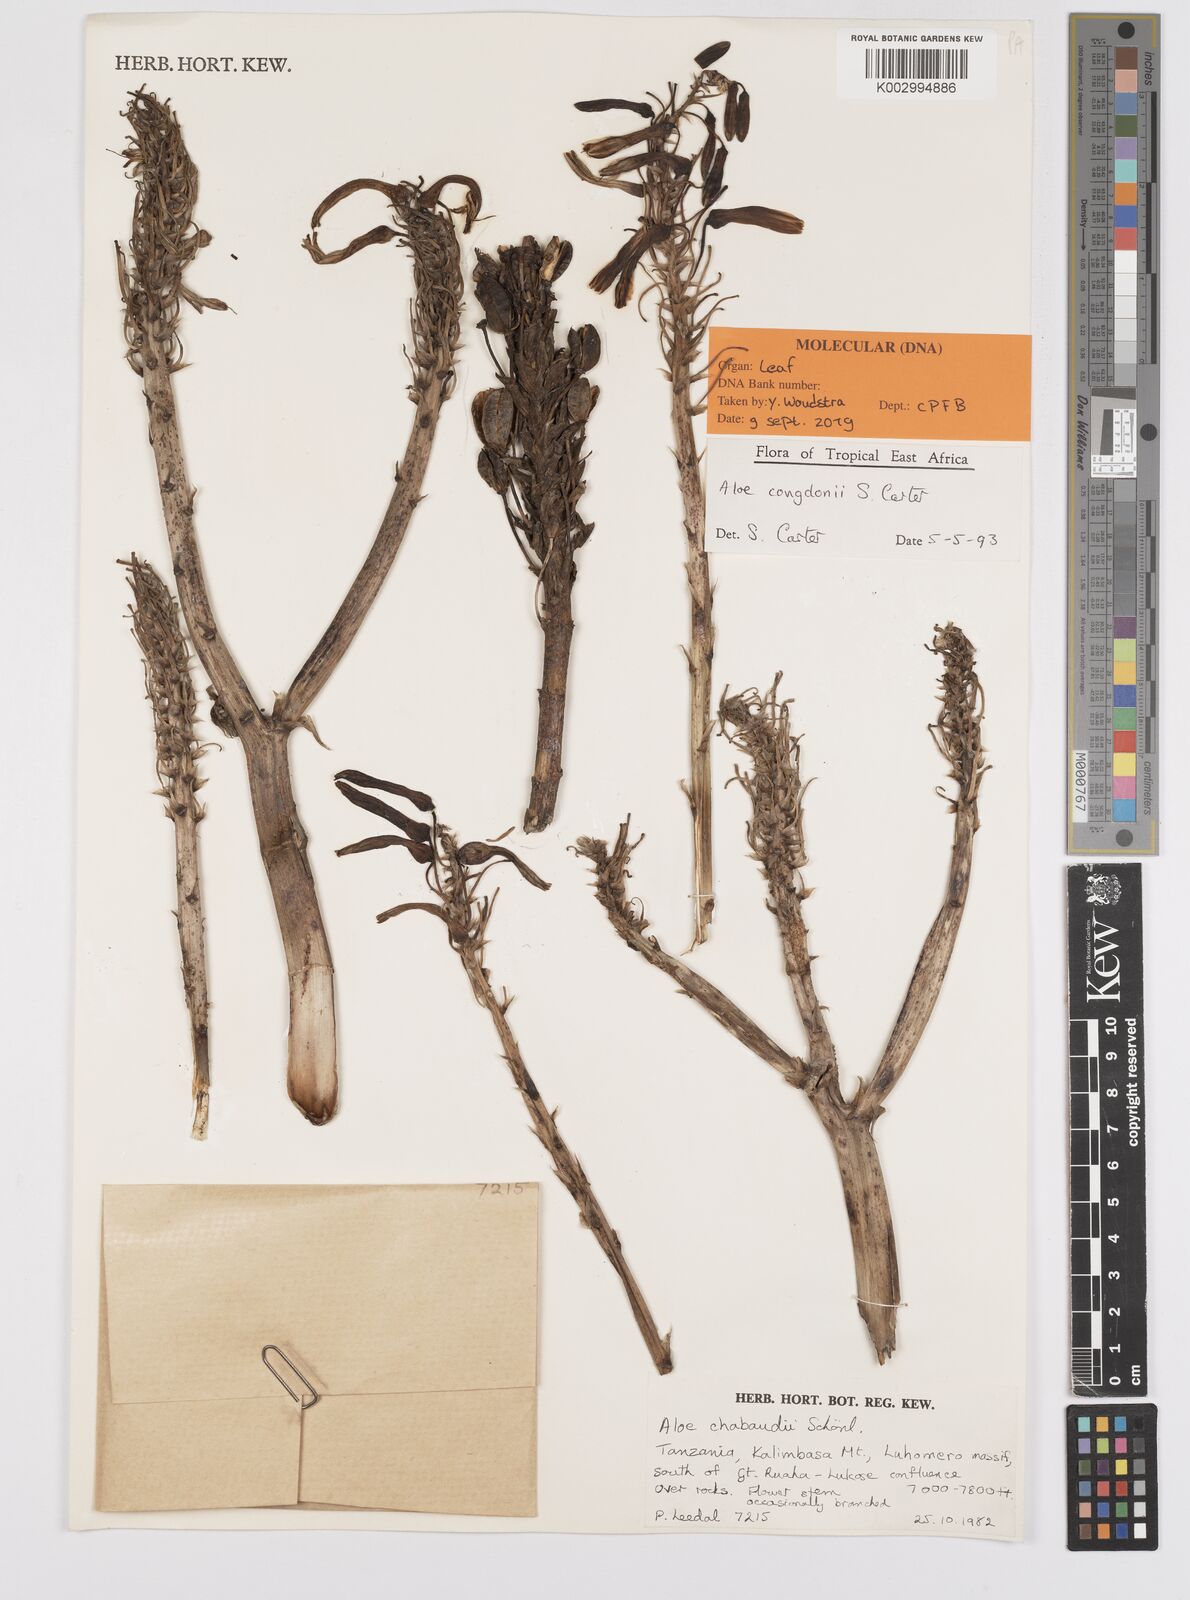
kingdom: Plantae
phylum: Tracheophyta
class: Liliopsida
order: Asparagales
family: Asphodelaceae
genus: Aloe
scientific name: Aloe congdonii
